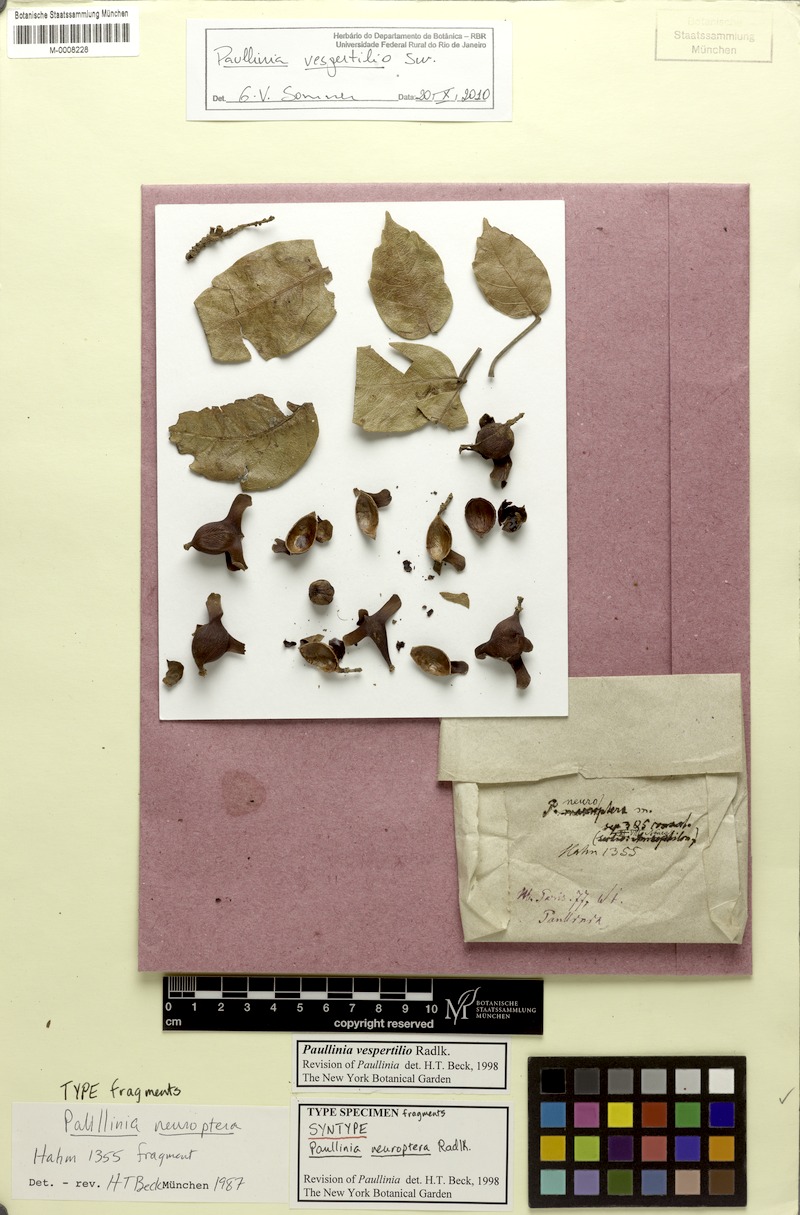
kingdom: Plantae
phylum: Tracheophyta
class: Magnoliopsida
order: Sapindales
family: Sapindaceae
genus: Paullinia
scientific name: Paullinia vespertilio
